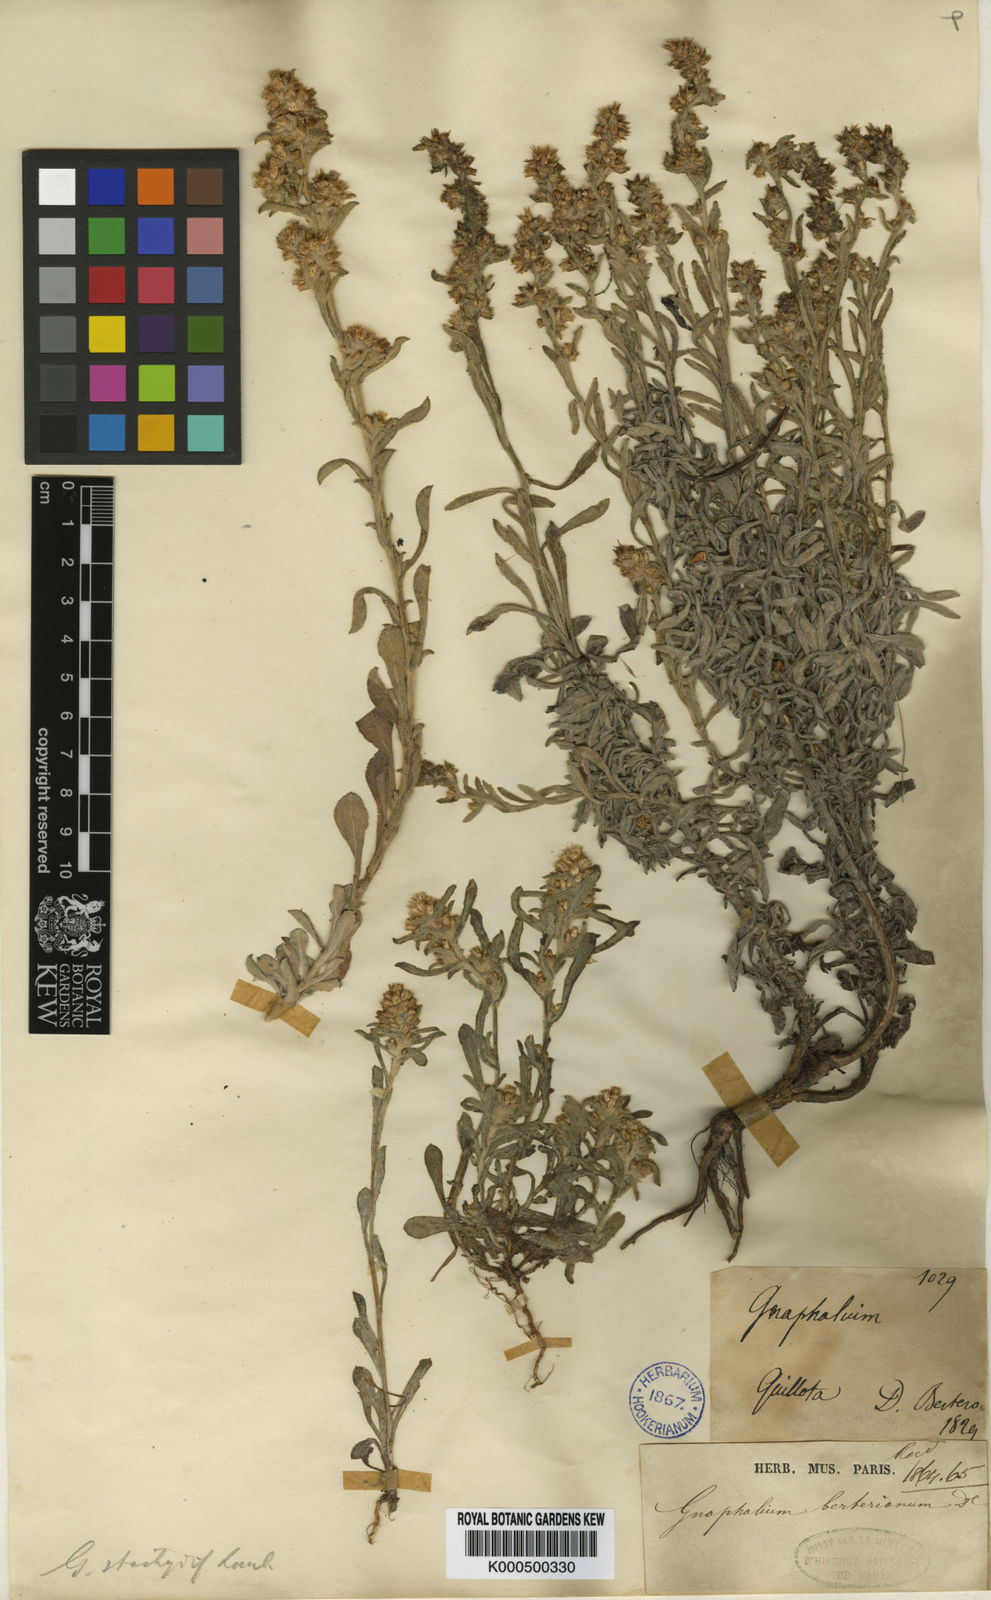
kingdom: Plantae
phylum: Tracheophyta
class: Magnoliopsida
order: Asterales
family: Asteraceae
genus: Gamochaeta
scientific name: Gamochaeta filaginea
